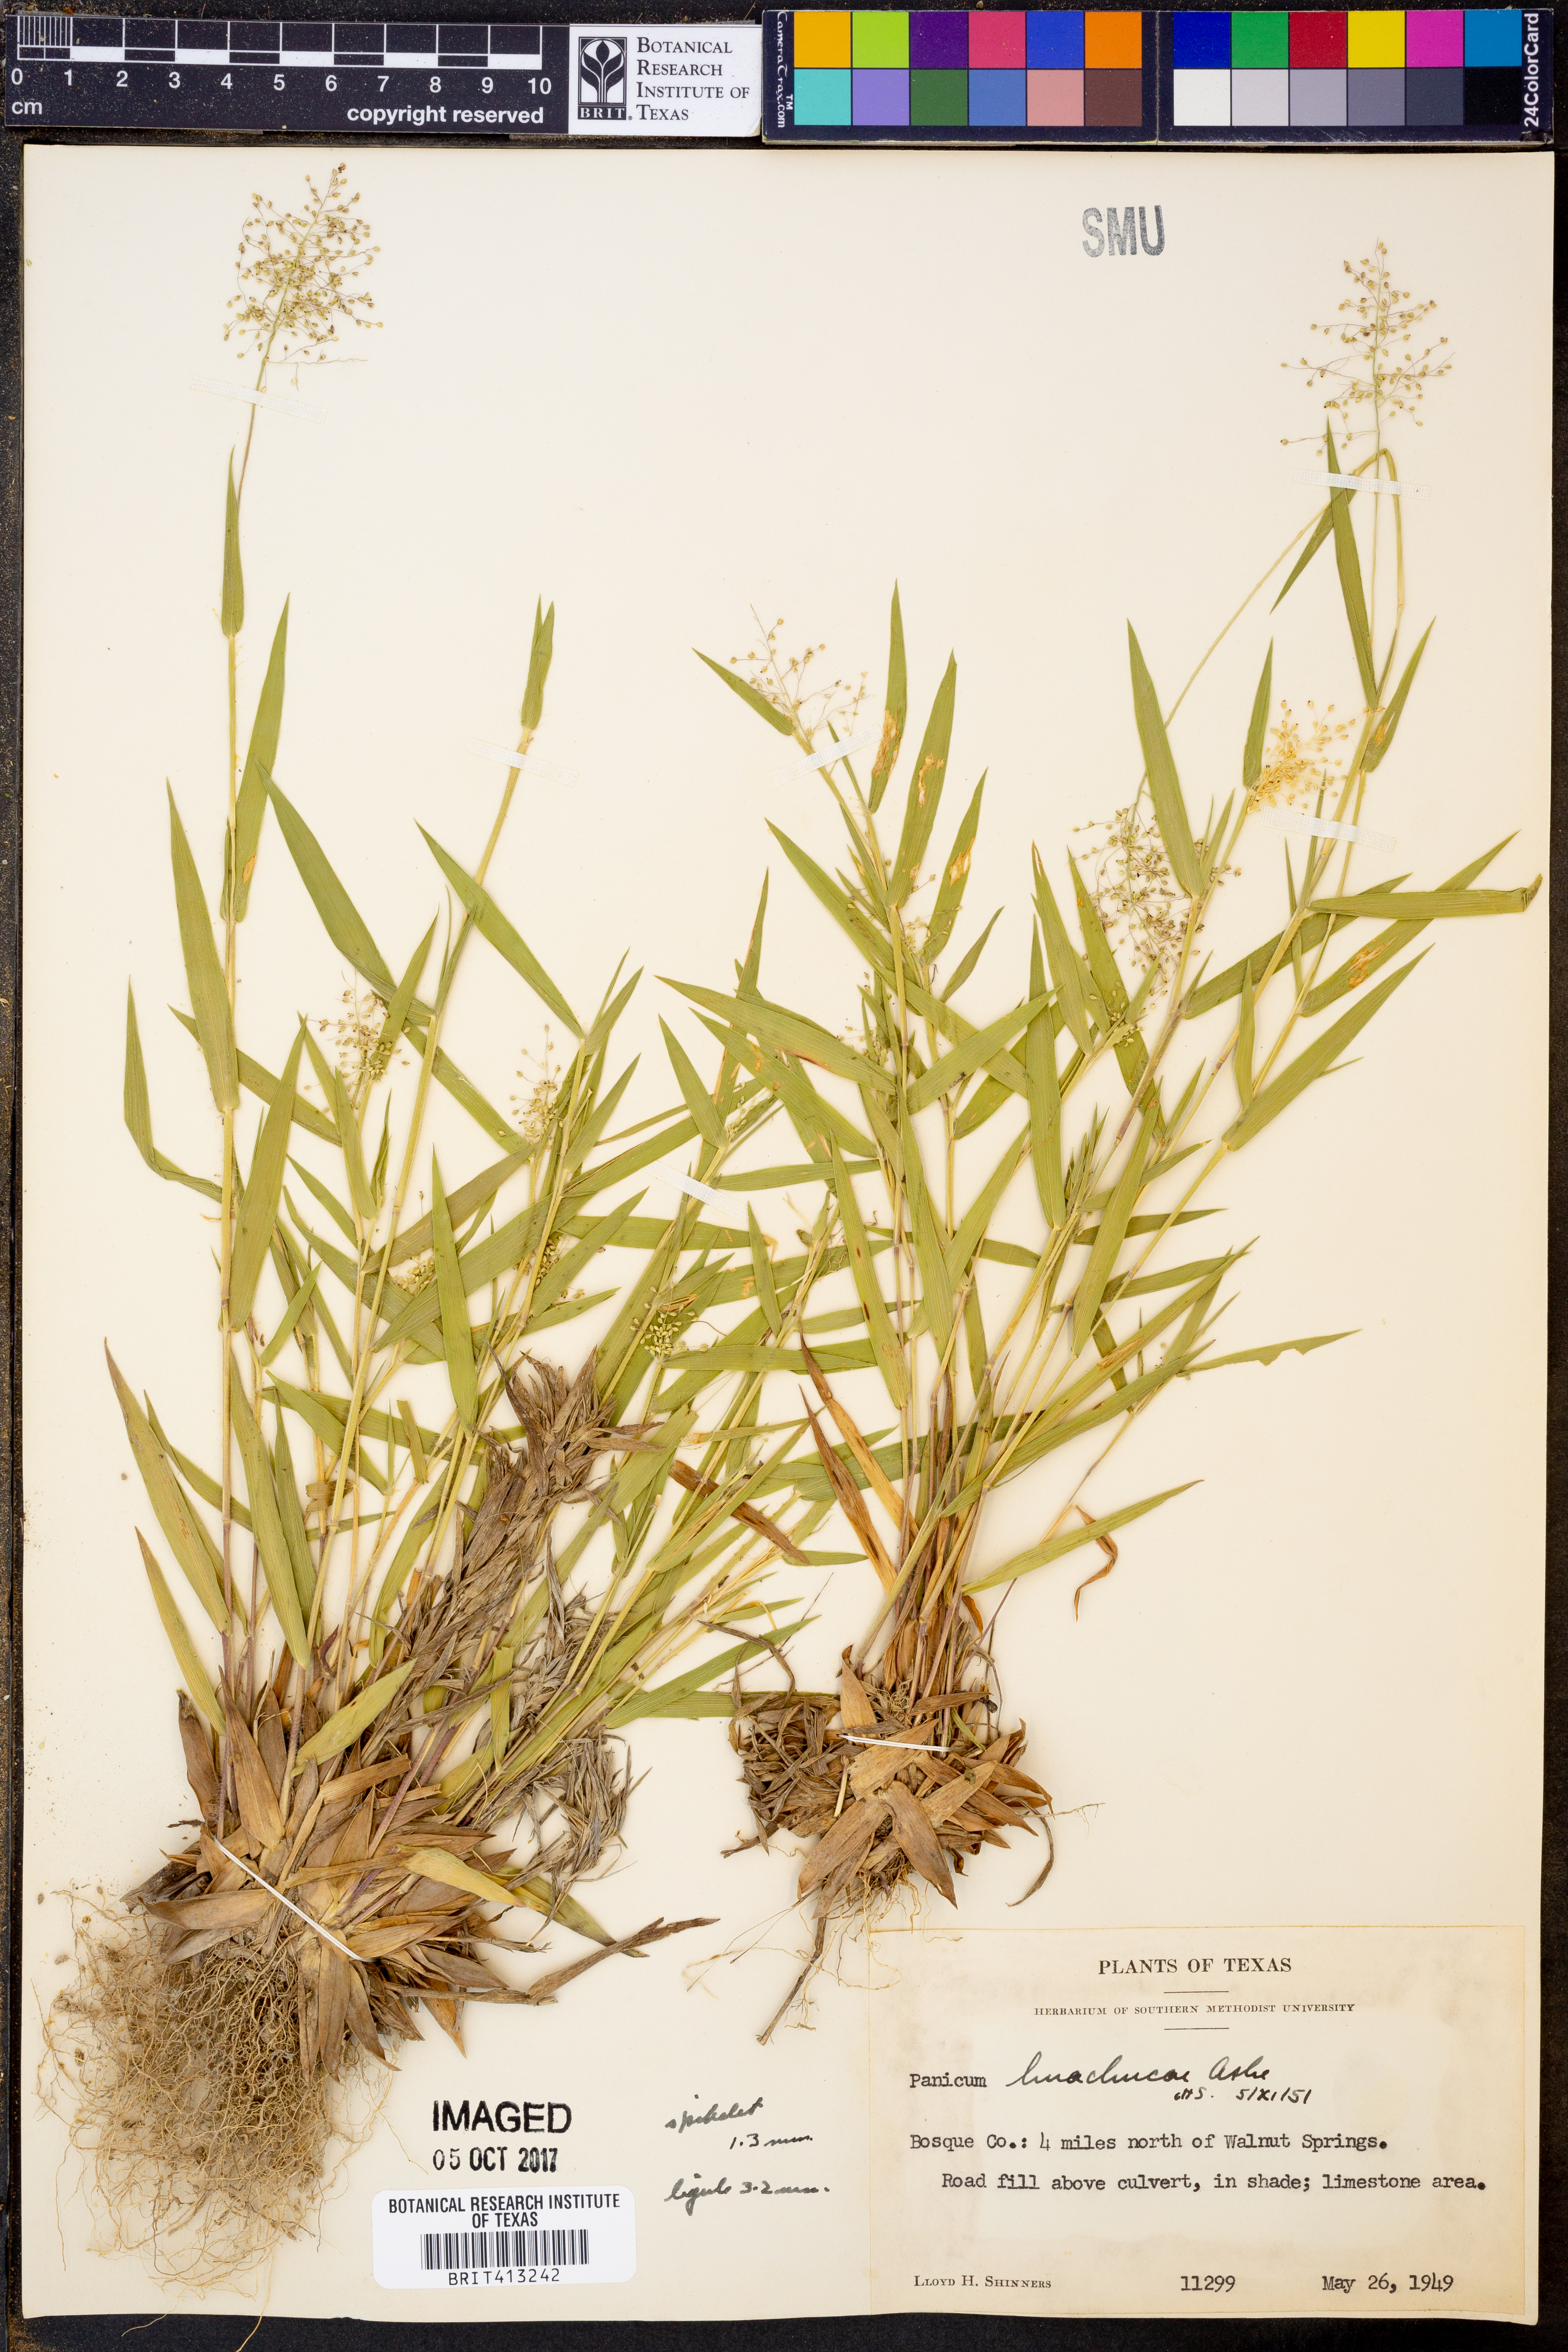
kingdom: Plantae
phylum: Tracheophyta
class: Liliopsida
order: Poales
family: Poaceae
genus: Dichanthelium
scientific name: Dichanthelium lanuginosum
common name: Woolly panicgrass
